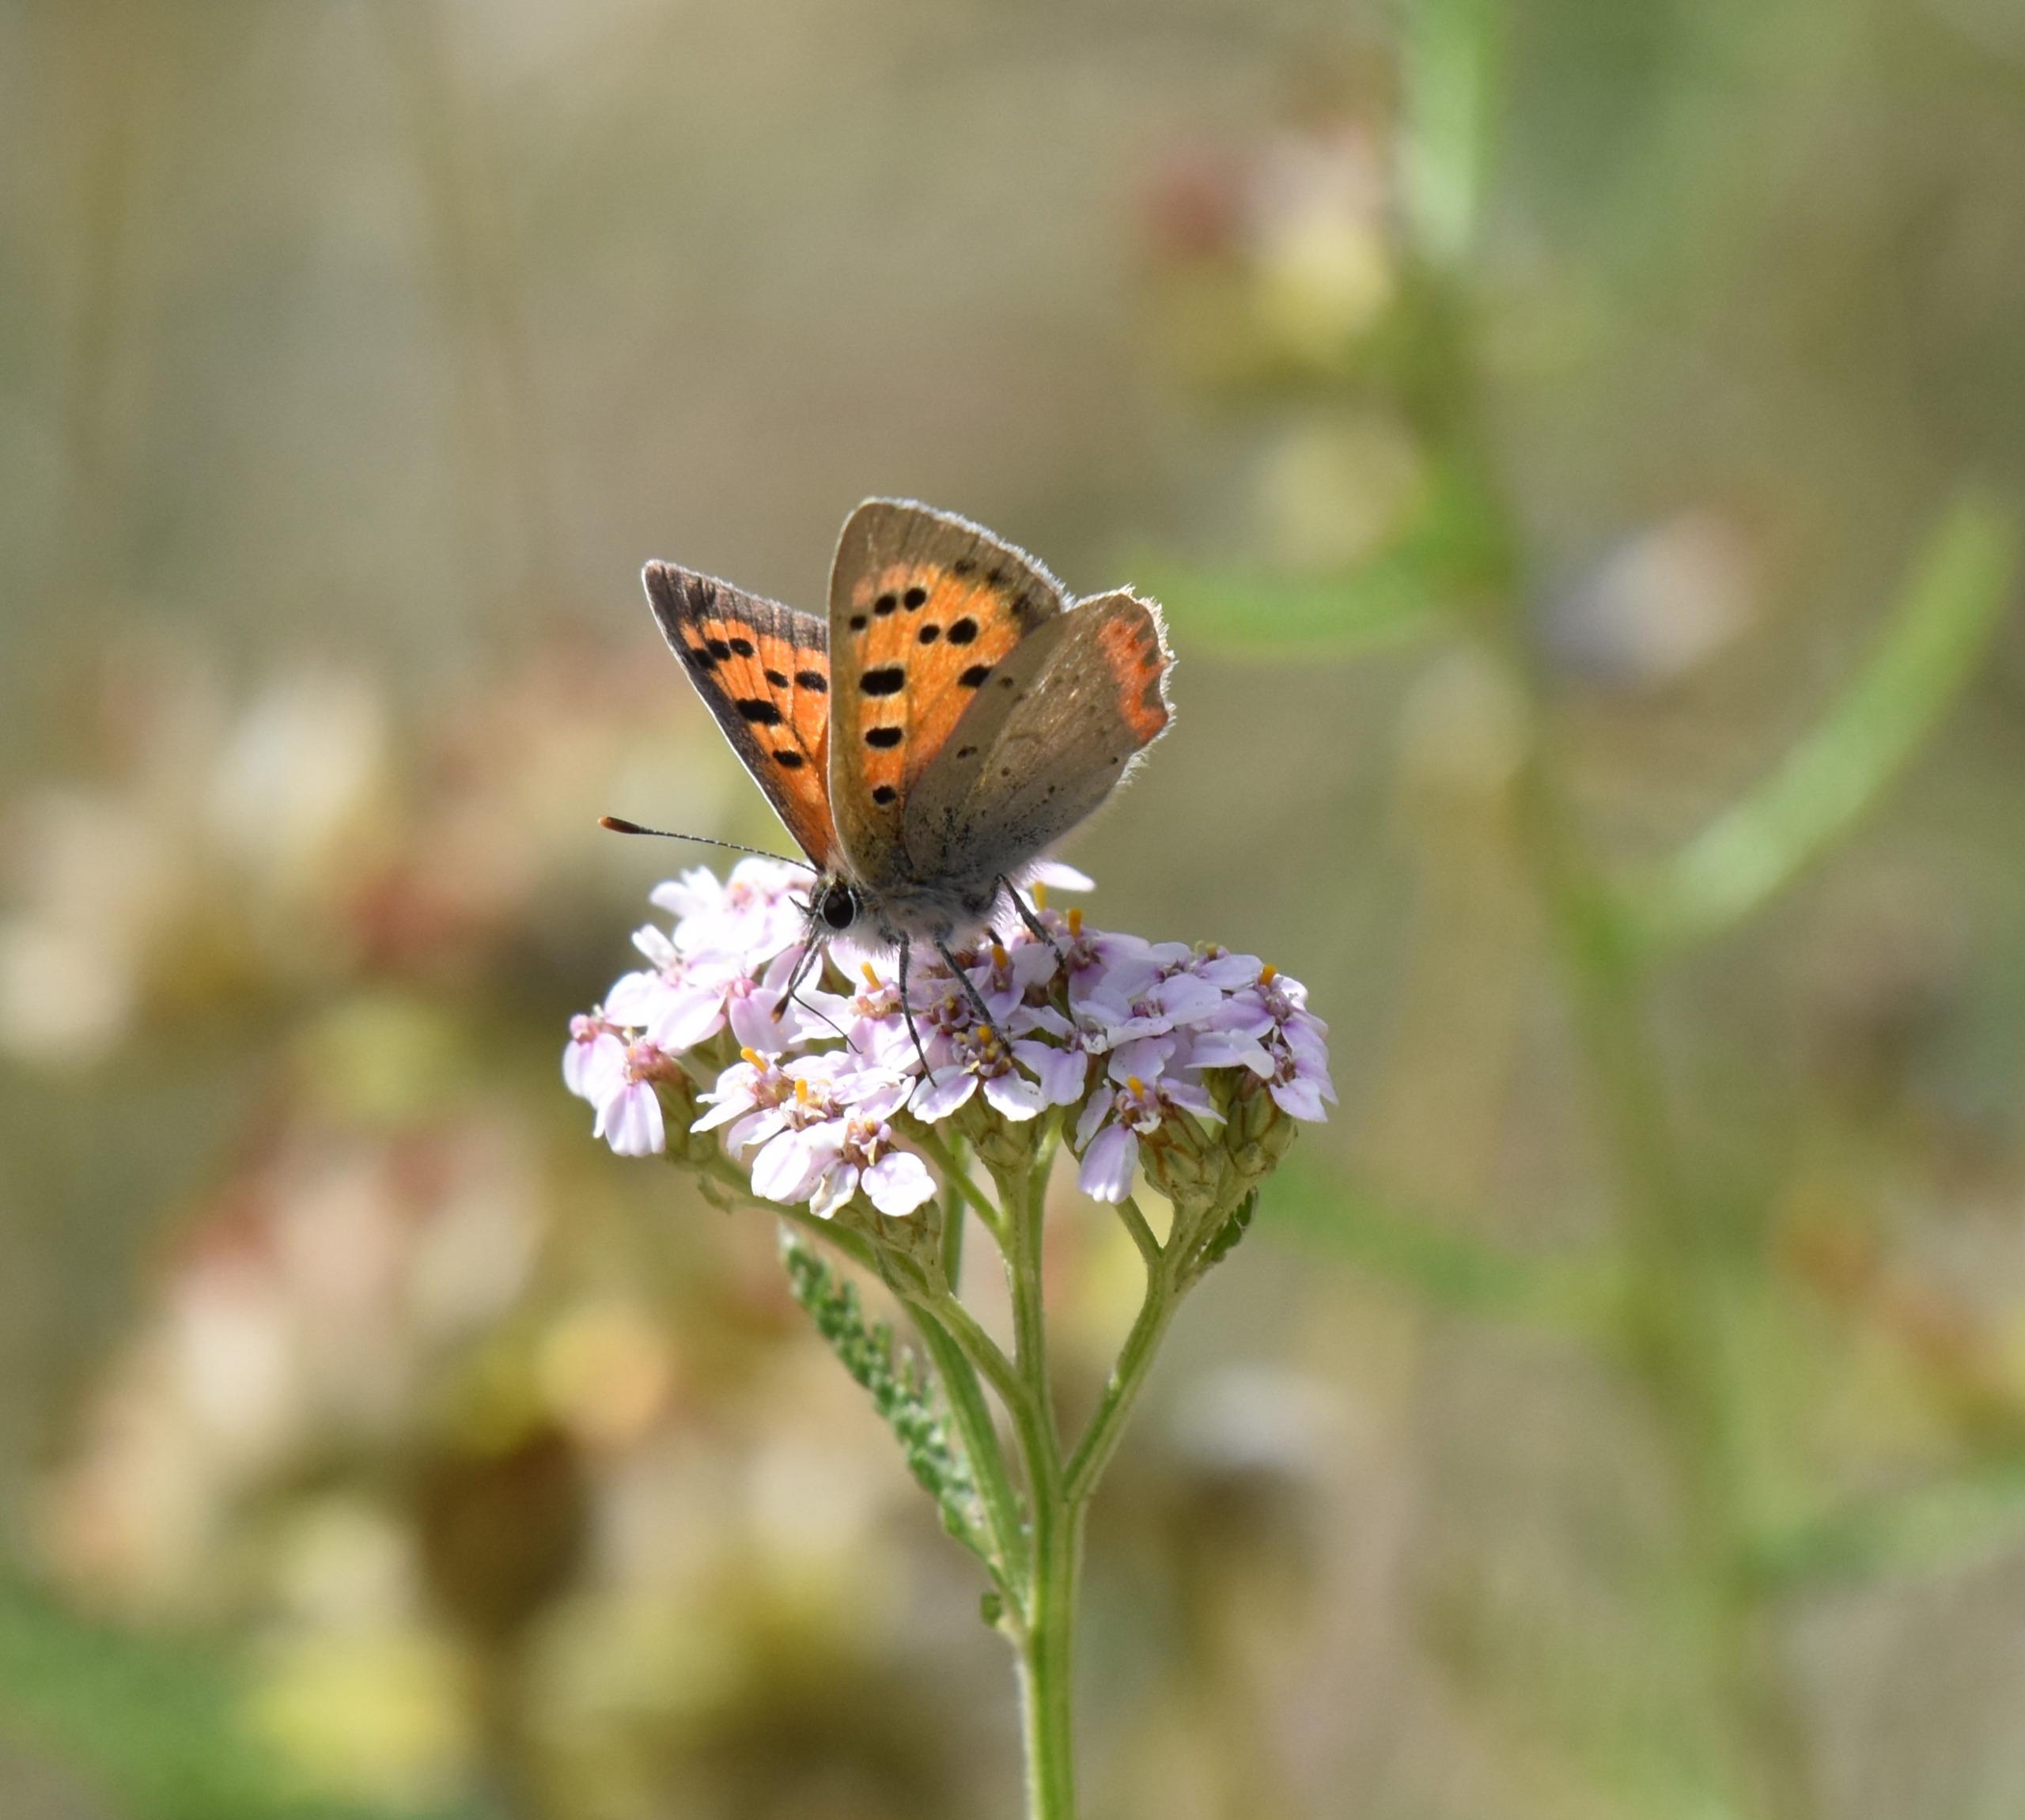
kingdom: Animalia
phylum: Arthropoda
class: Insecta
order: Lepidoptera
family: Lycaenidae
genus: Lycaena
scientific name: Lycaena phlaeas
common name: Lille ildfugl
